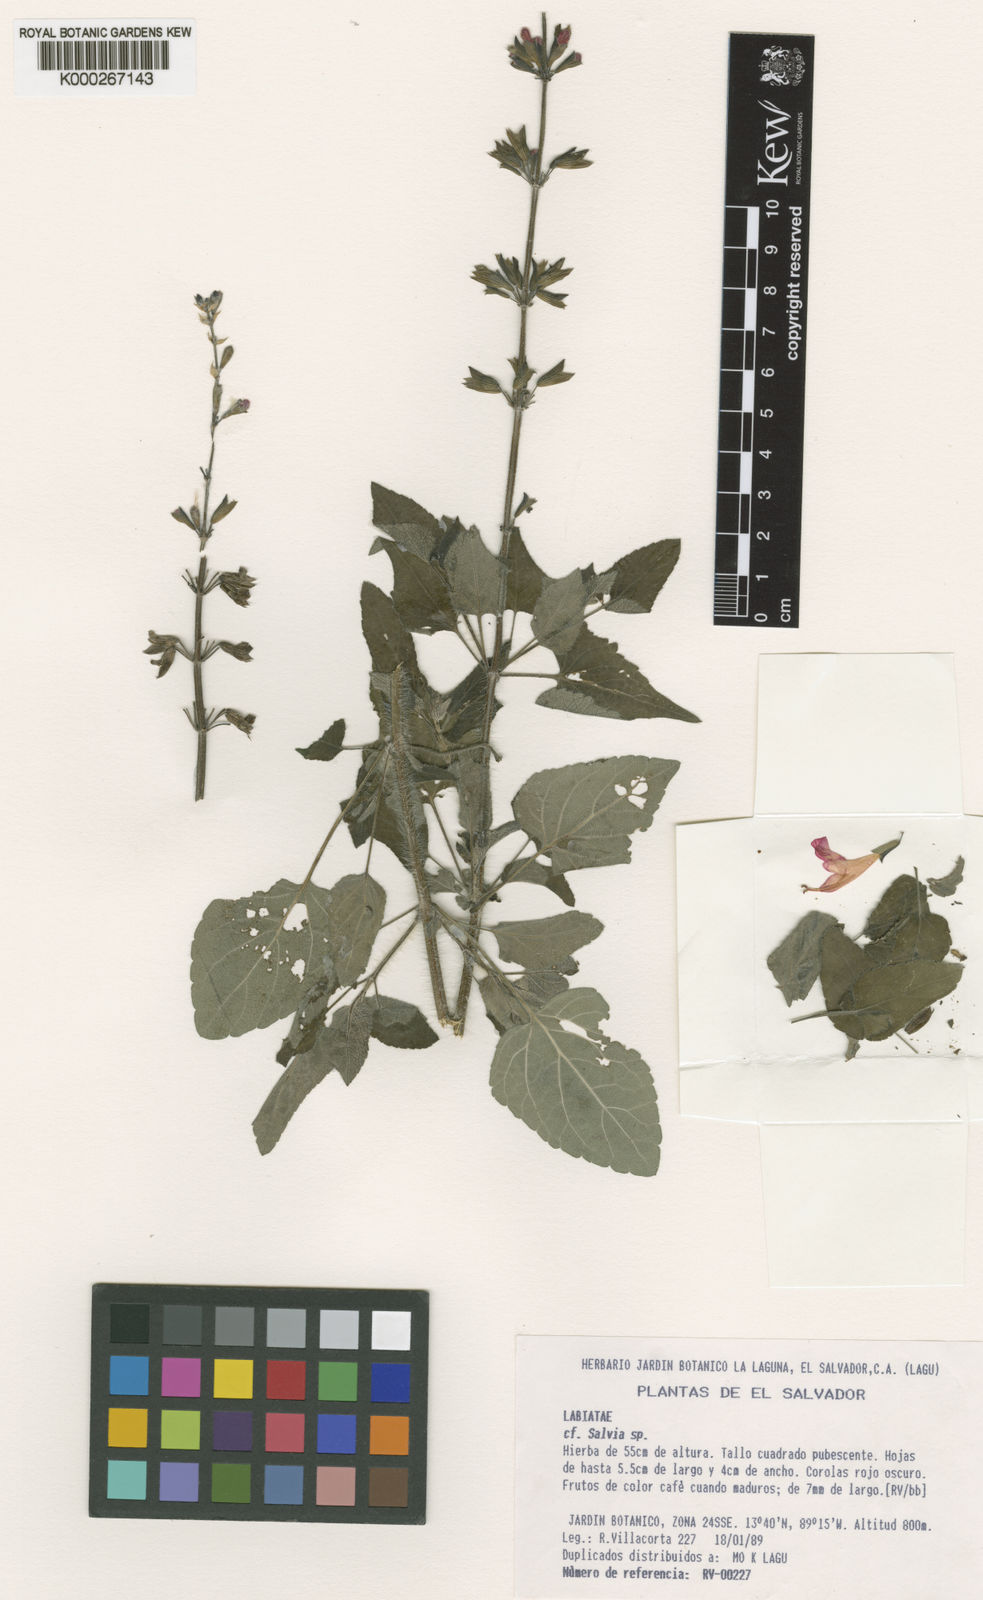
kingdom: Plantae
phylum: Tracheophyta
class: Magnoliopsida
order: Lamiales
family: Lamiaceae
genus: Salvia
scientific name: Salvia
